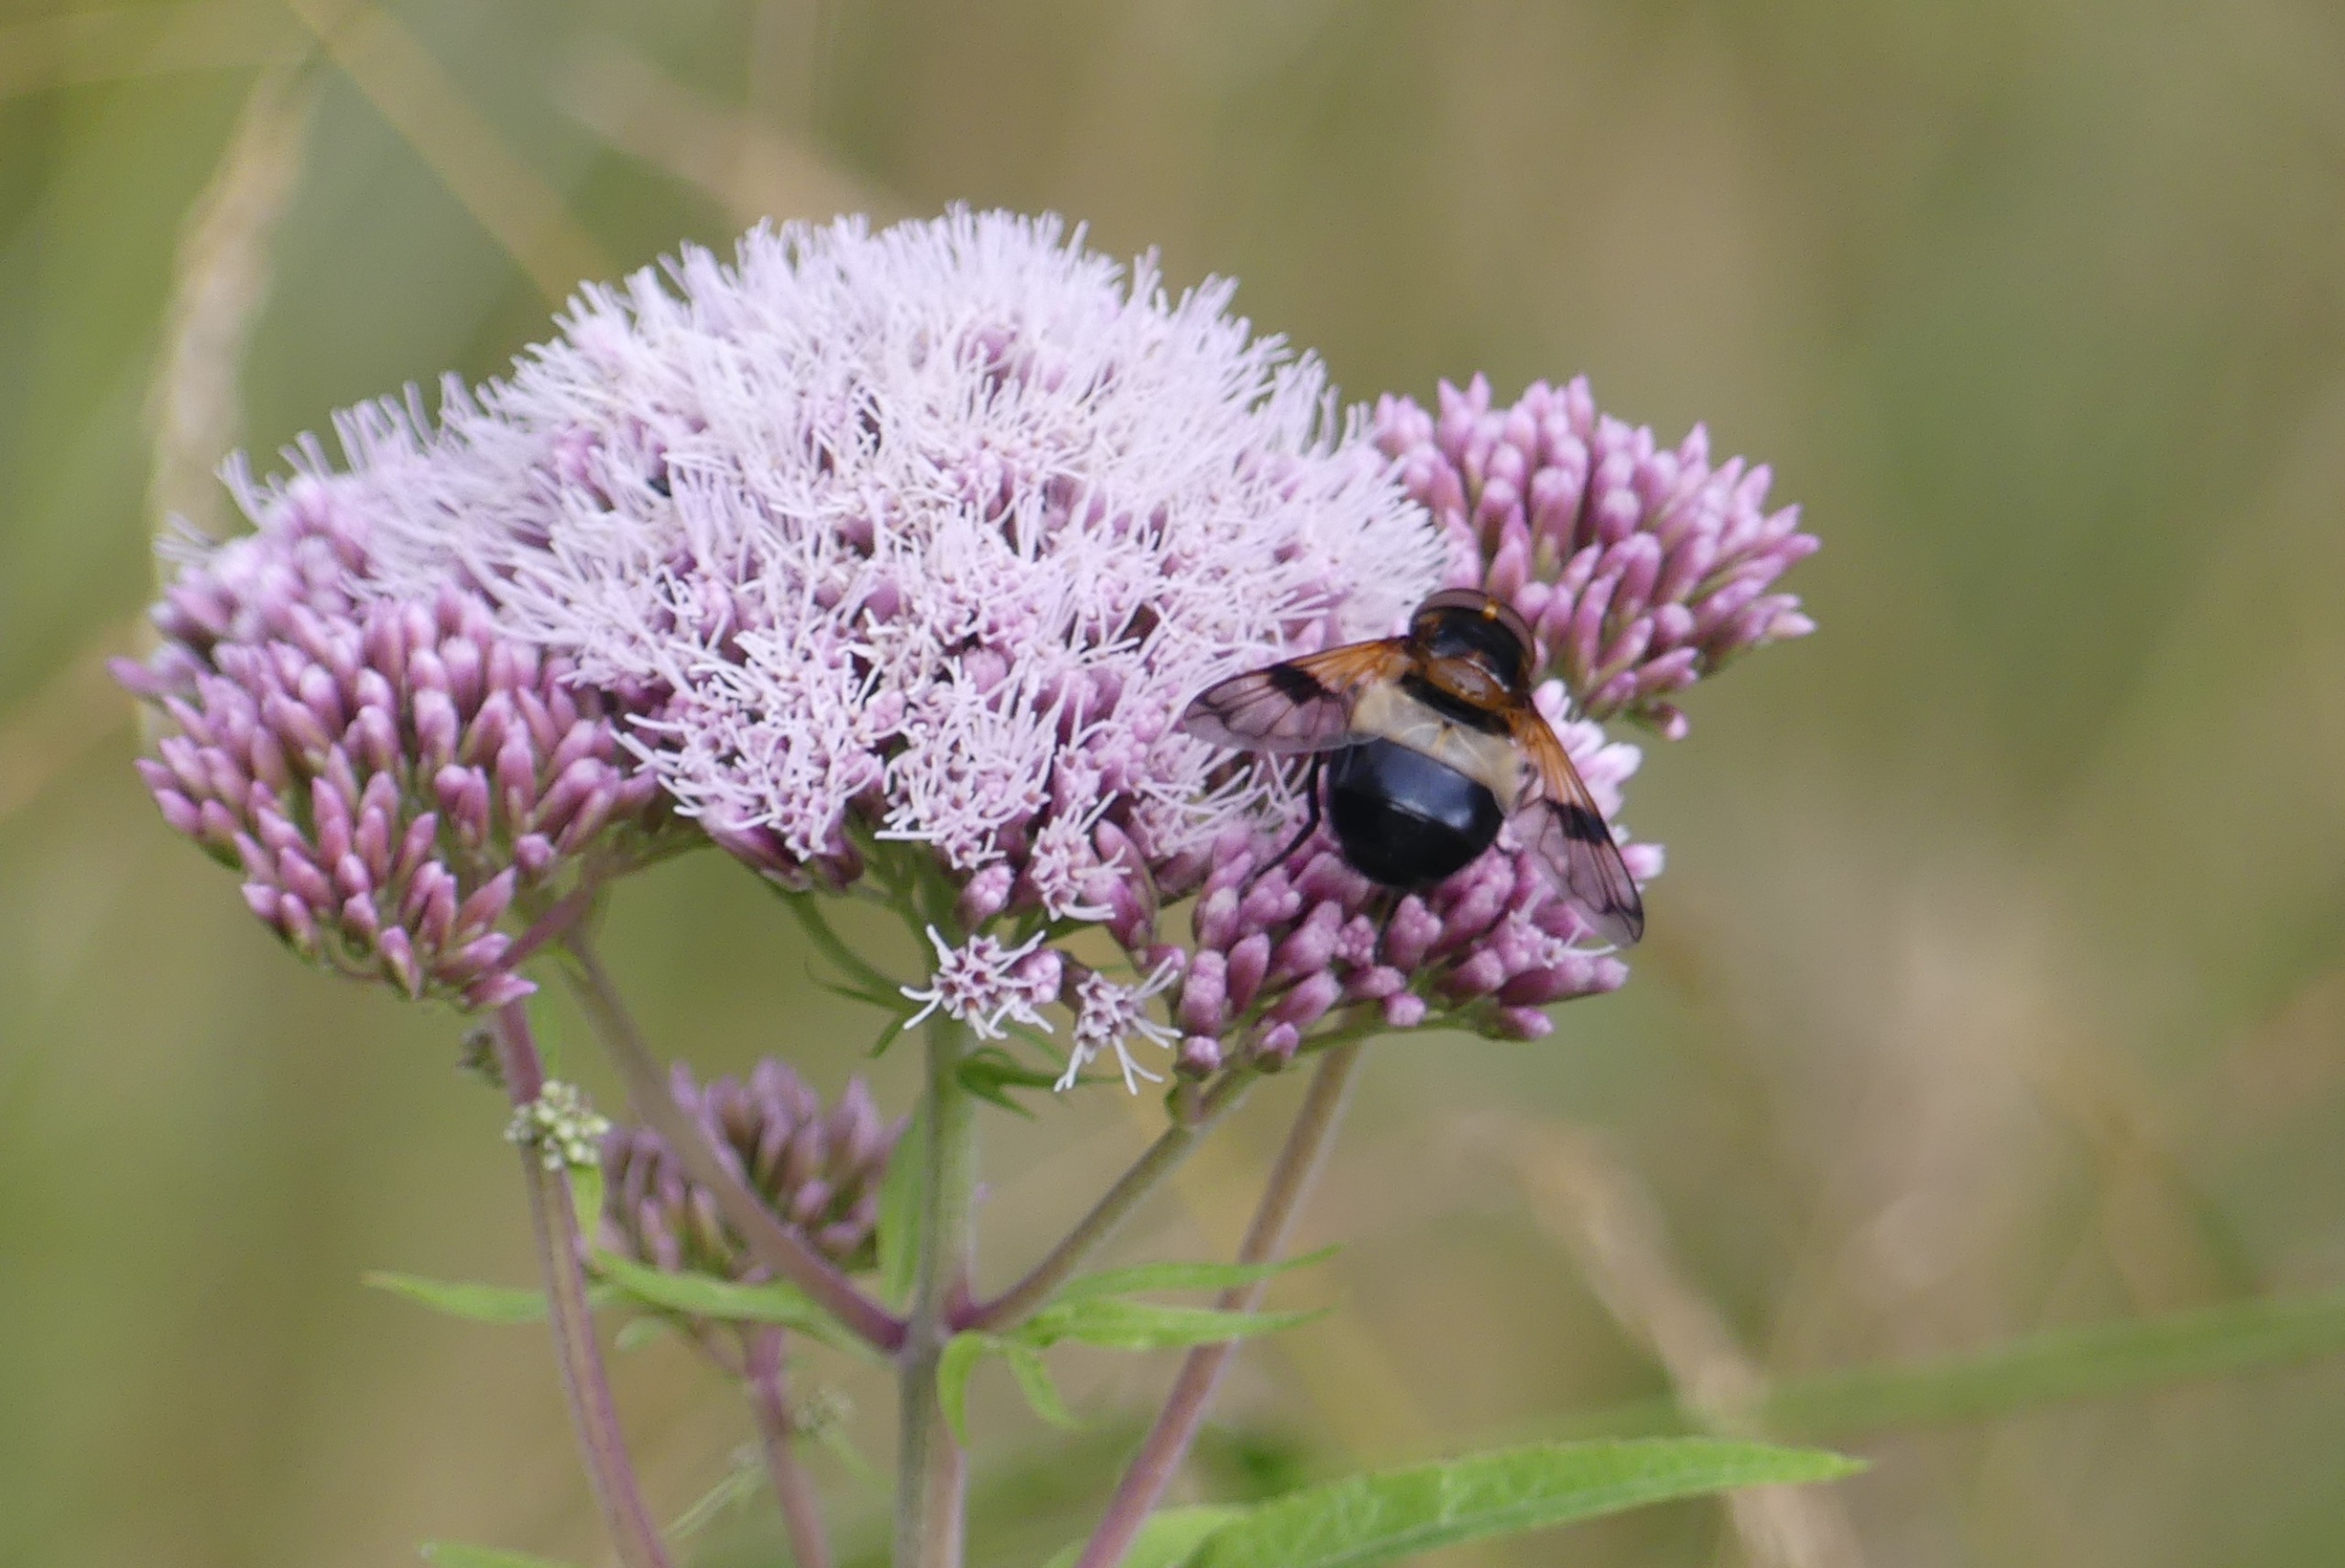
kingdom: Animalia
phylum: Arthropoda
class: Insecta
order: Diptera
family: Syrphidae
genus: Volucella
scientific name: Volucella pellucens
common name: Hvidbåndet humlesvirreflue
